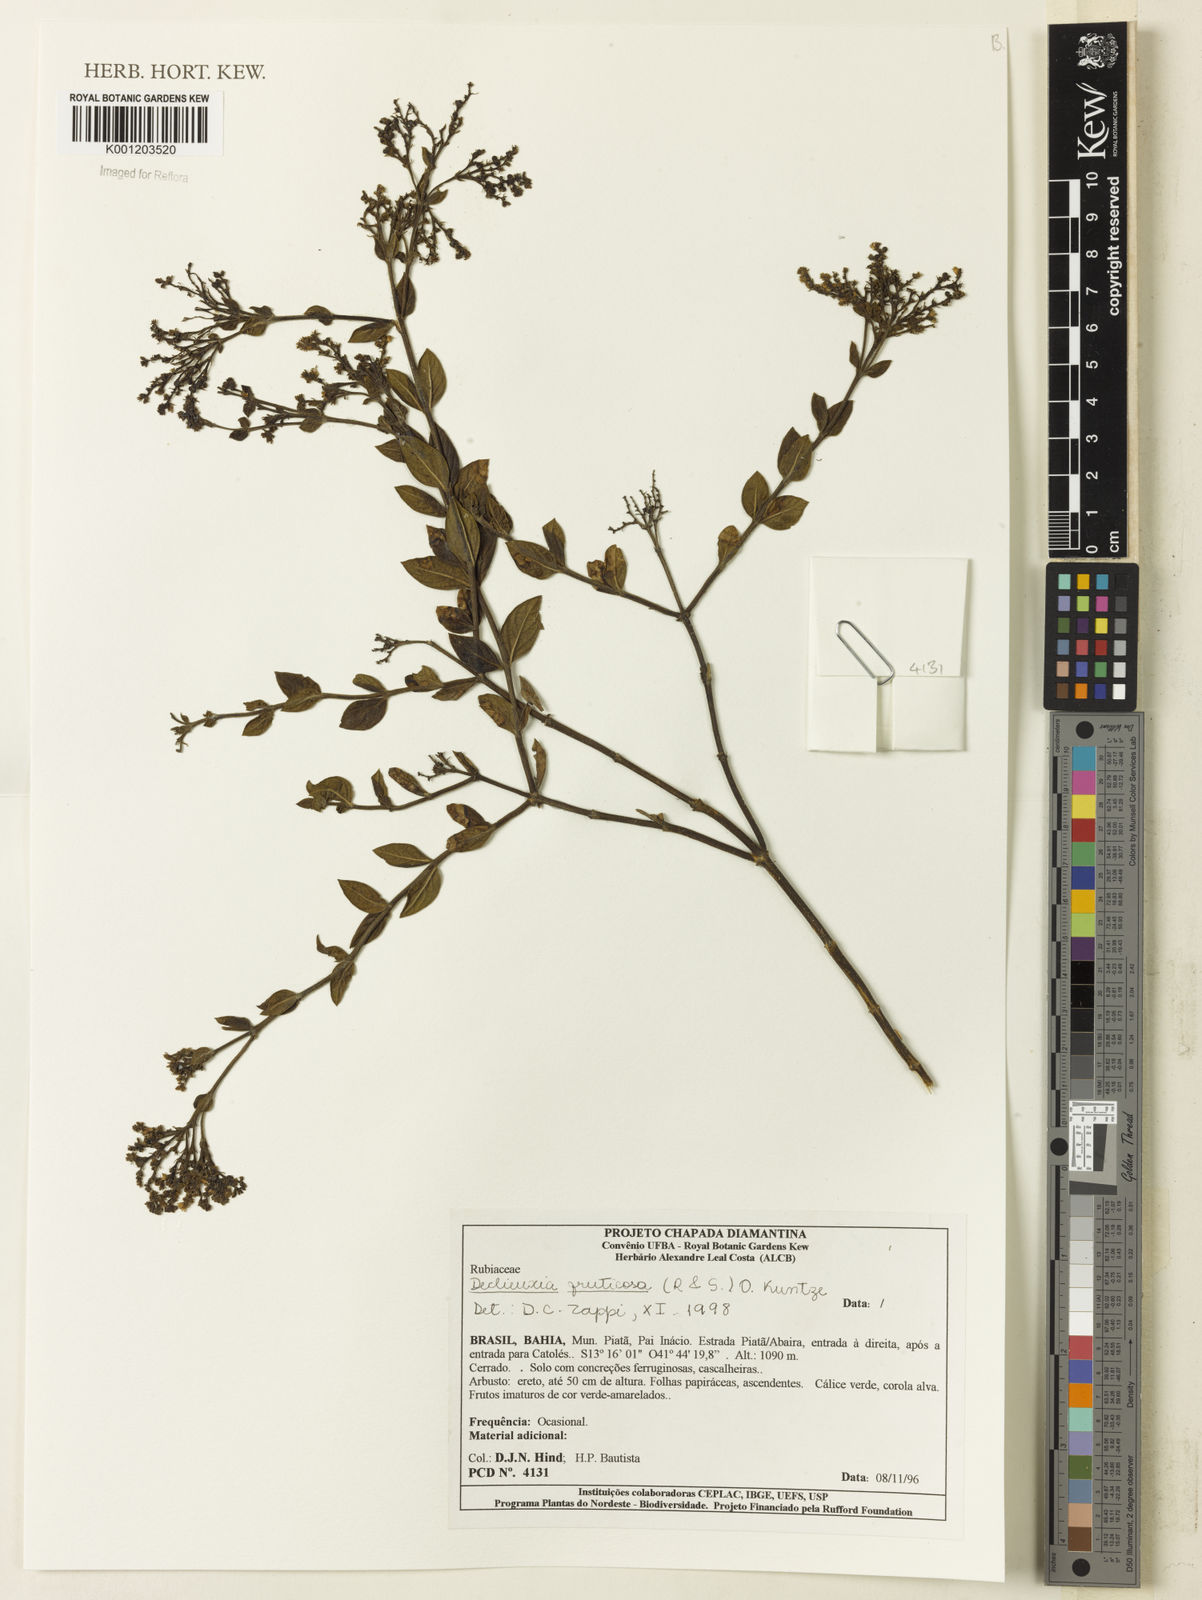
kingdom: Plantae
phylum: Tracheophyta
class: Magnoliopsida
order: Gentianales
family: Rubiaceae
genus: Declieuxia
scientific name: Declieuxia fruticosa
